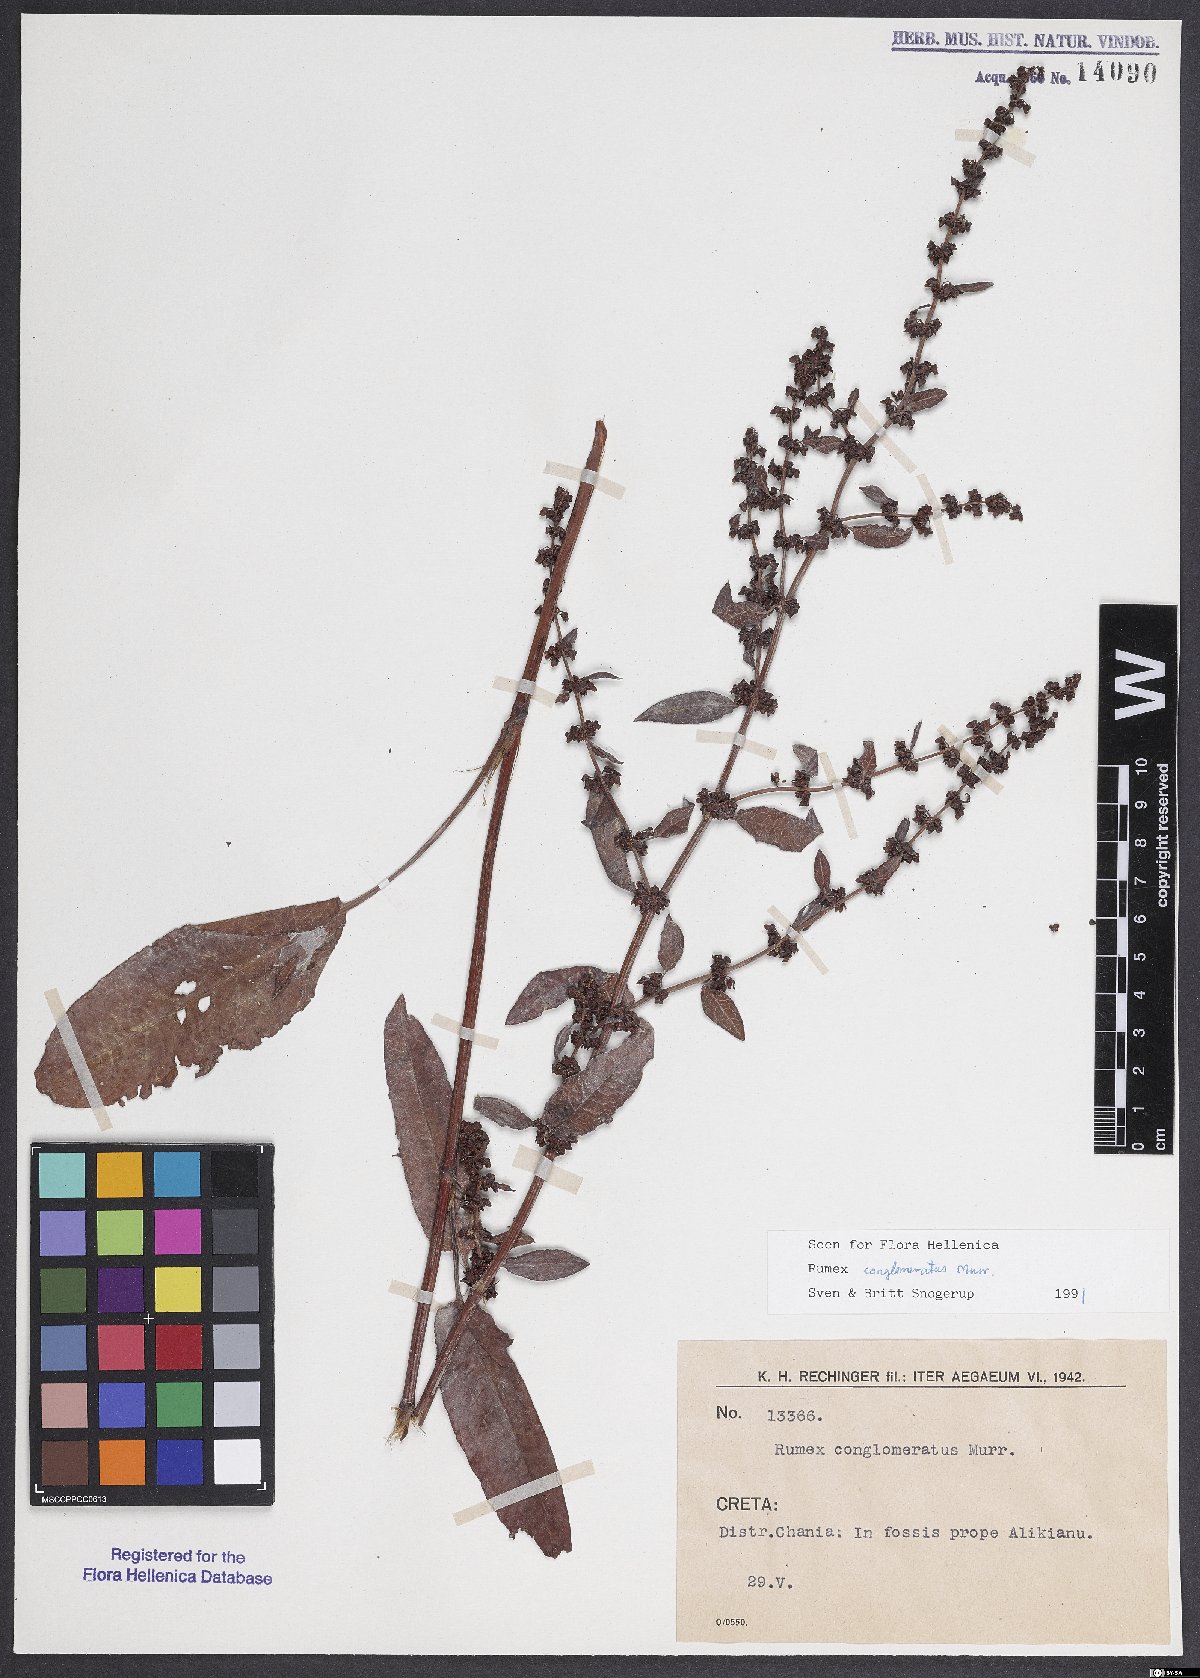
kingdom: Plantae
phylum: Tracheophyta
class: Magnoliopsida
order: Caryophyllales
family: Polygonaceae
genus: Rumex
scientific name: Rumex conglomeratus
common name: Clustered dock
